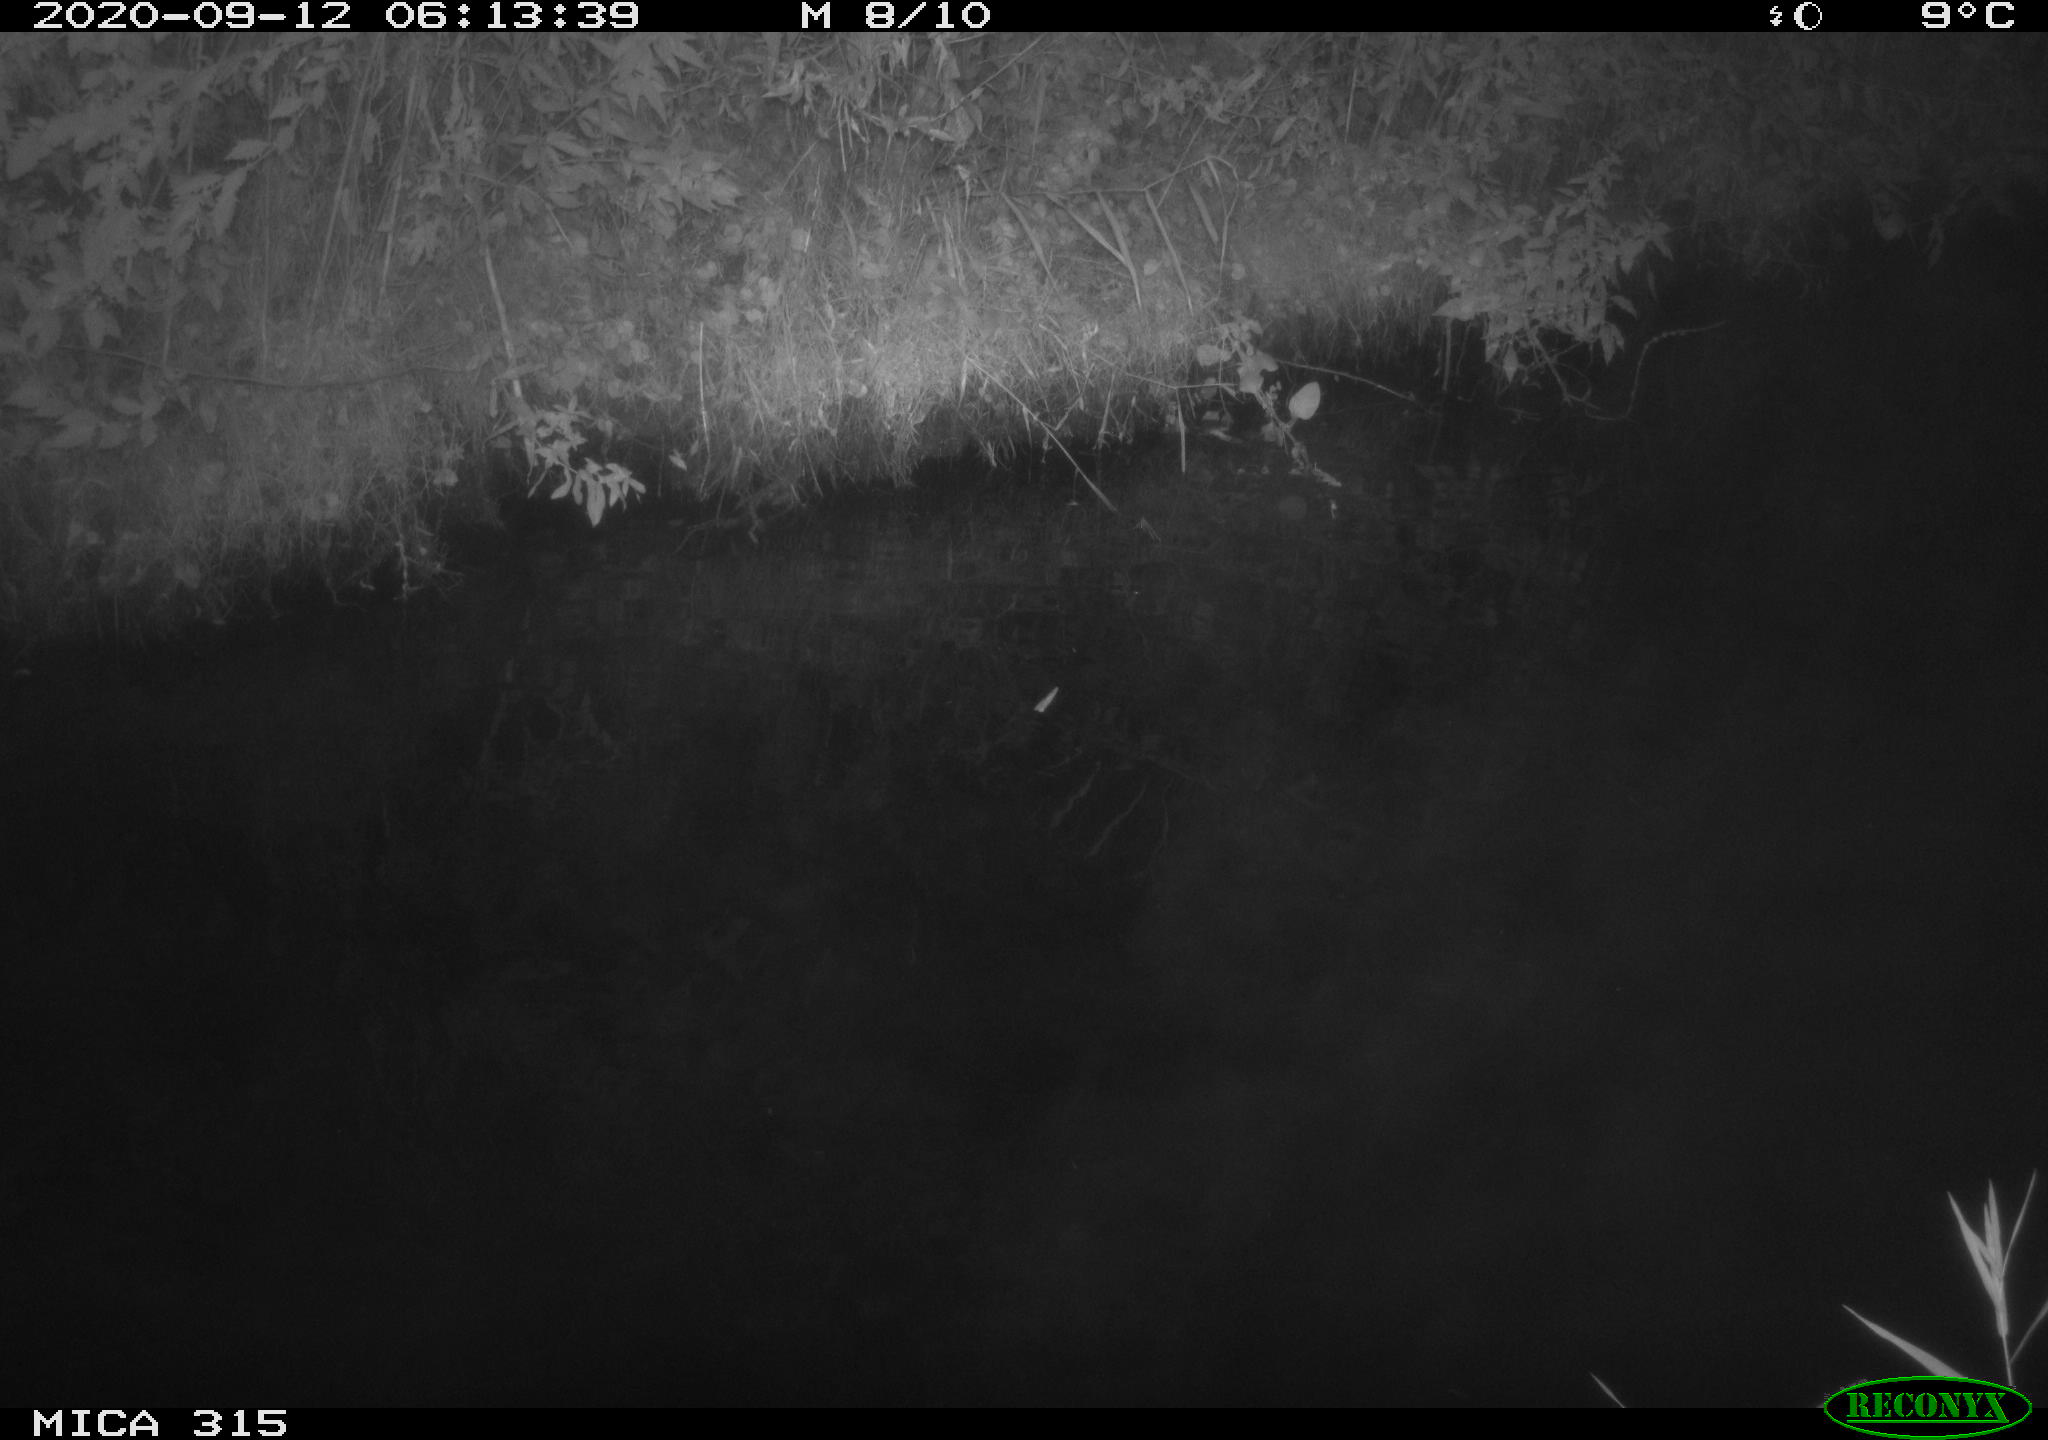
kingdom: Animalia
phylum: Chordata
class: Aves
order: Anseriformes
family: Anatidae
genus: Anas
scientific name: Anas platyrhynchos
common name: Mallard
